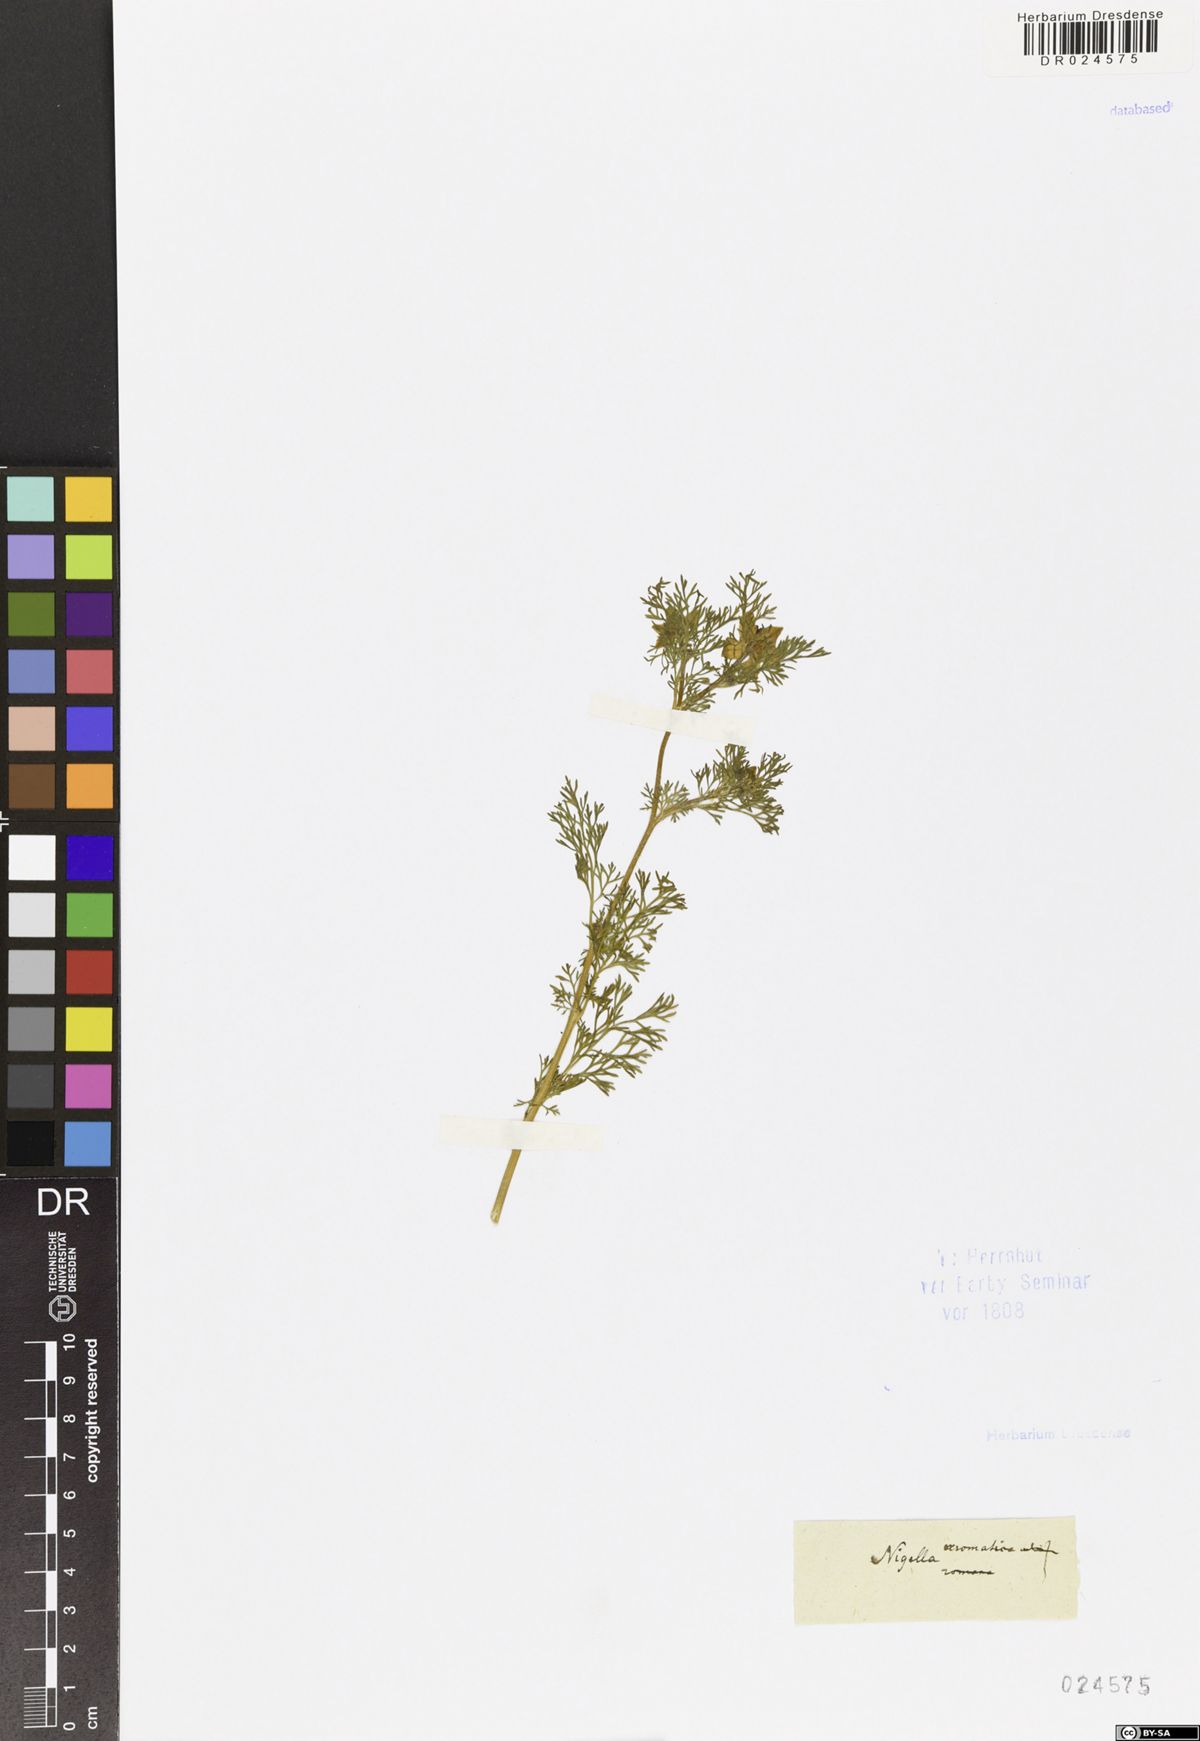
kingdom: Plantae
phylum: Tracheophyta
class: Magnoliopsida
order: Ranunculales
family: Ranunculaceae
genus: Nigella
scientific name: Nigella
